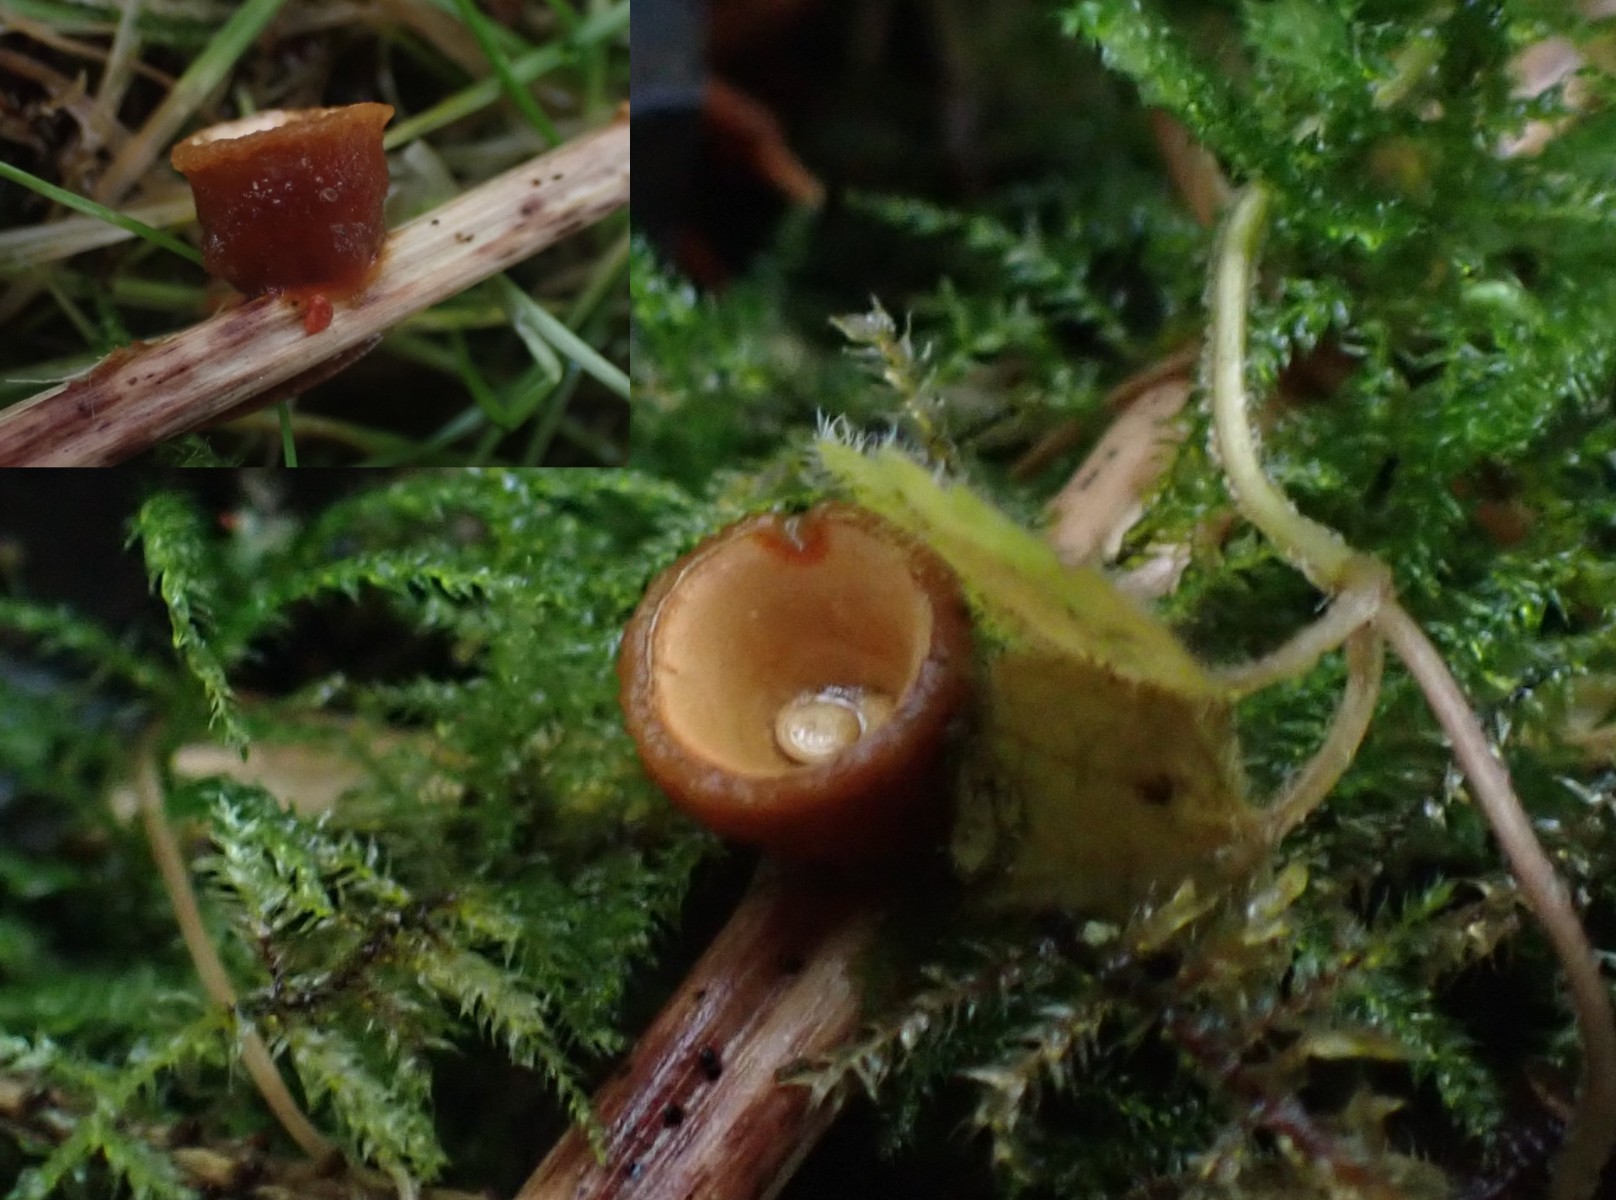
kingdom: Fungi
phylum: Basidiomycota
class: Agaricomycetes
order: Agaricales
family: Nidulariaceae
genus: Crucibulum
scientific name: Crucibulum crucibuliforme
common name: krukkesvamp
